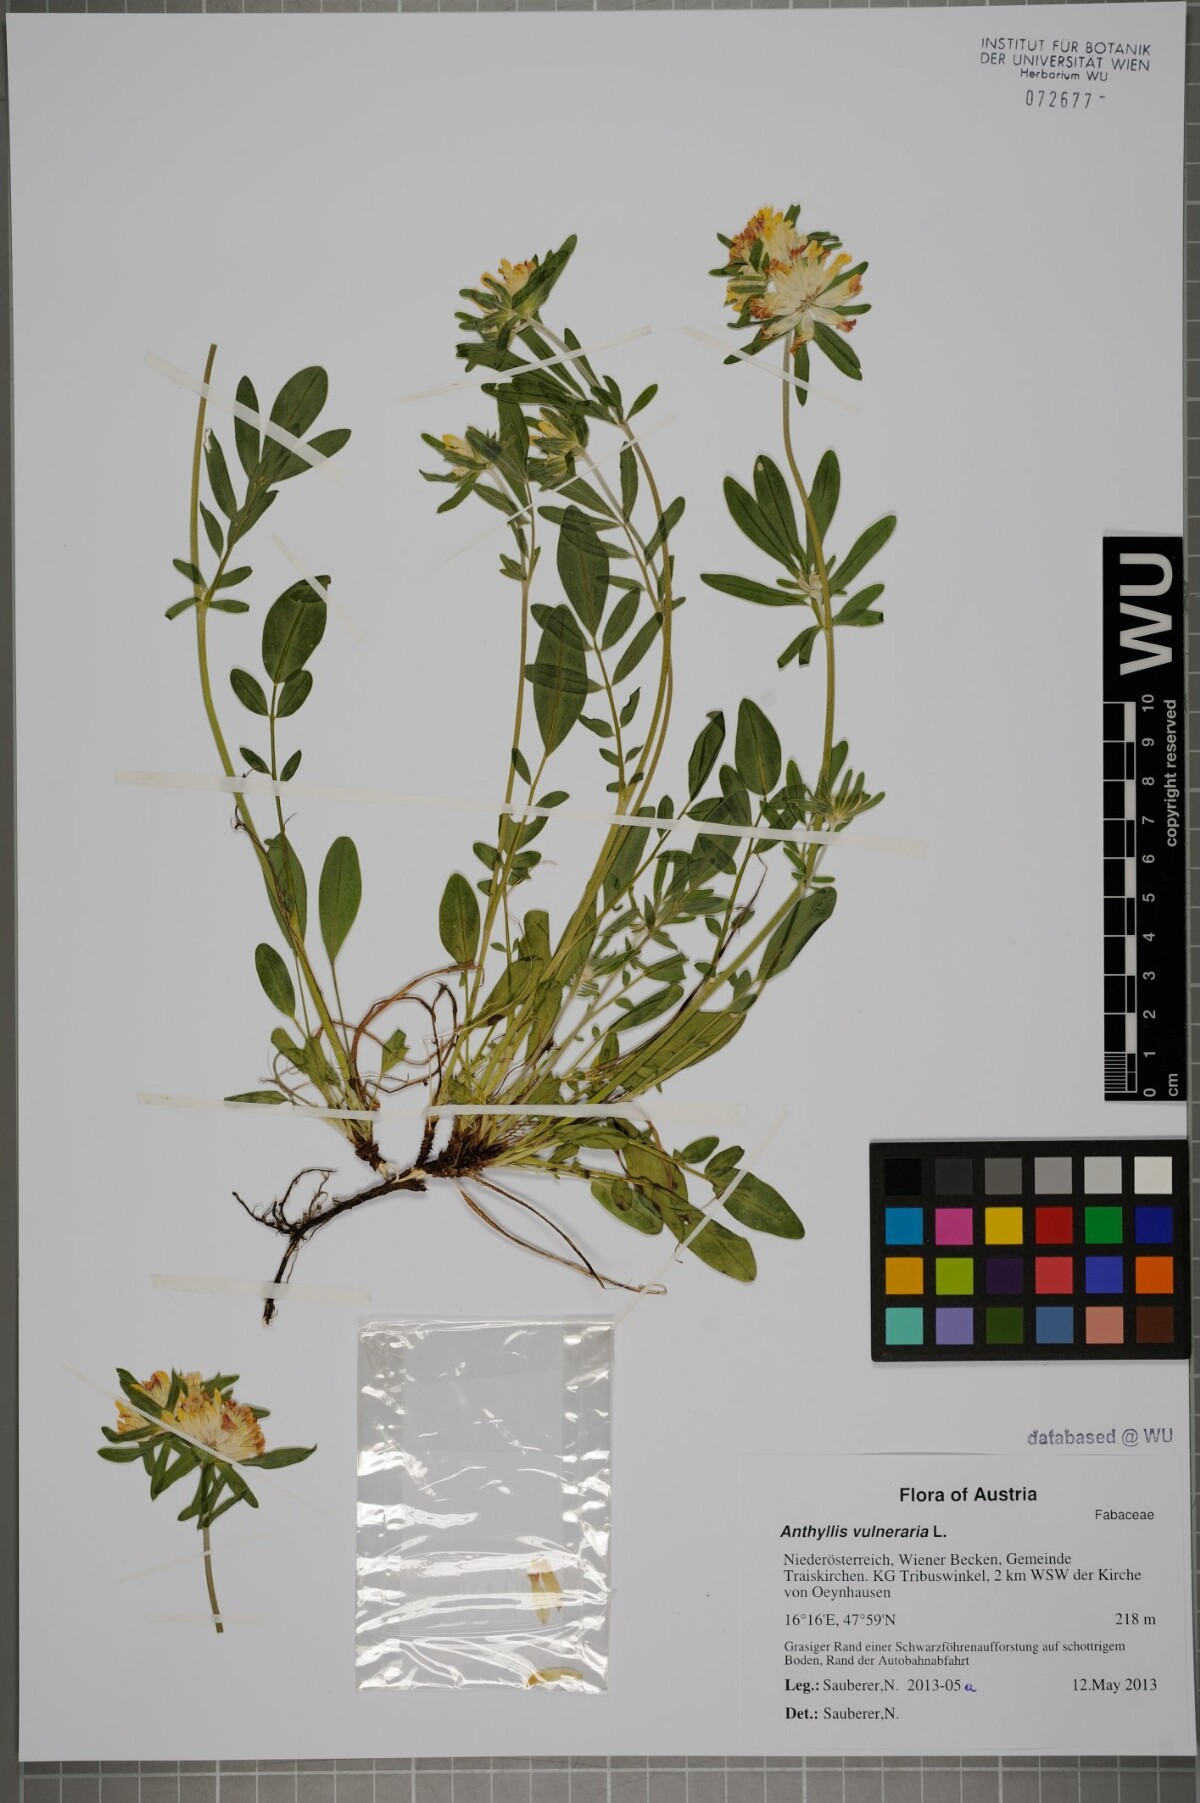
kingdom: Plantae
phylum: Tracheophyta
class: Magnoliopsida
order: Fabales
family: Fabaceae
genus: Anthyllis
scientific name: Anthyllis vulneraria
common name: Kidney vetch
